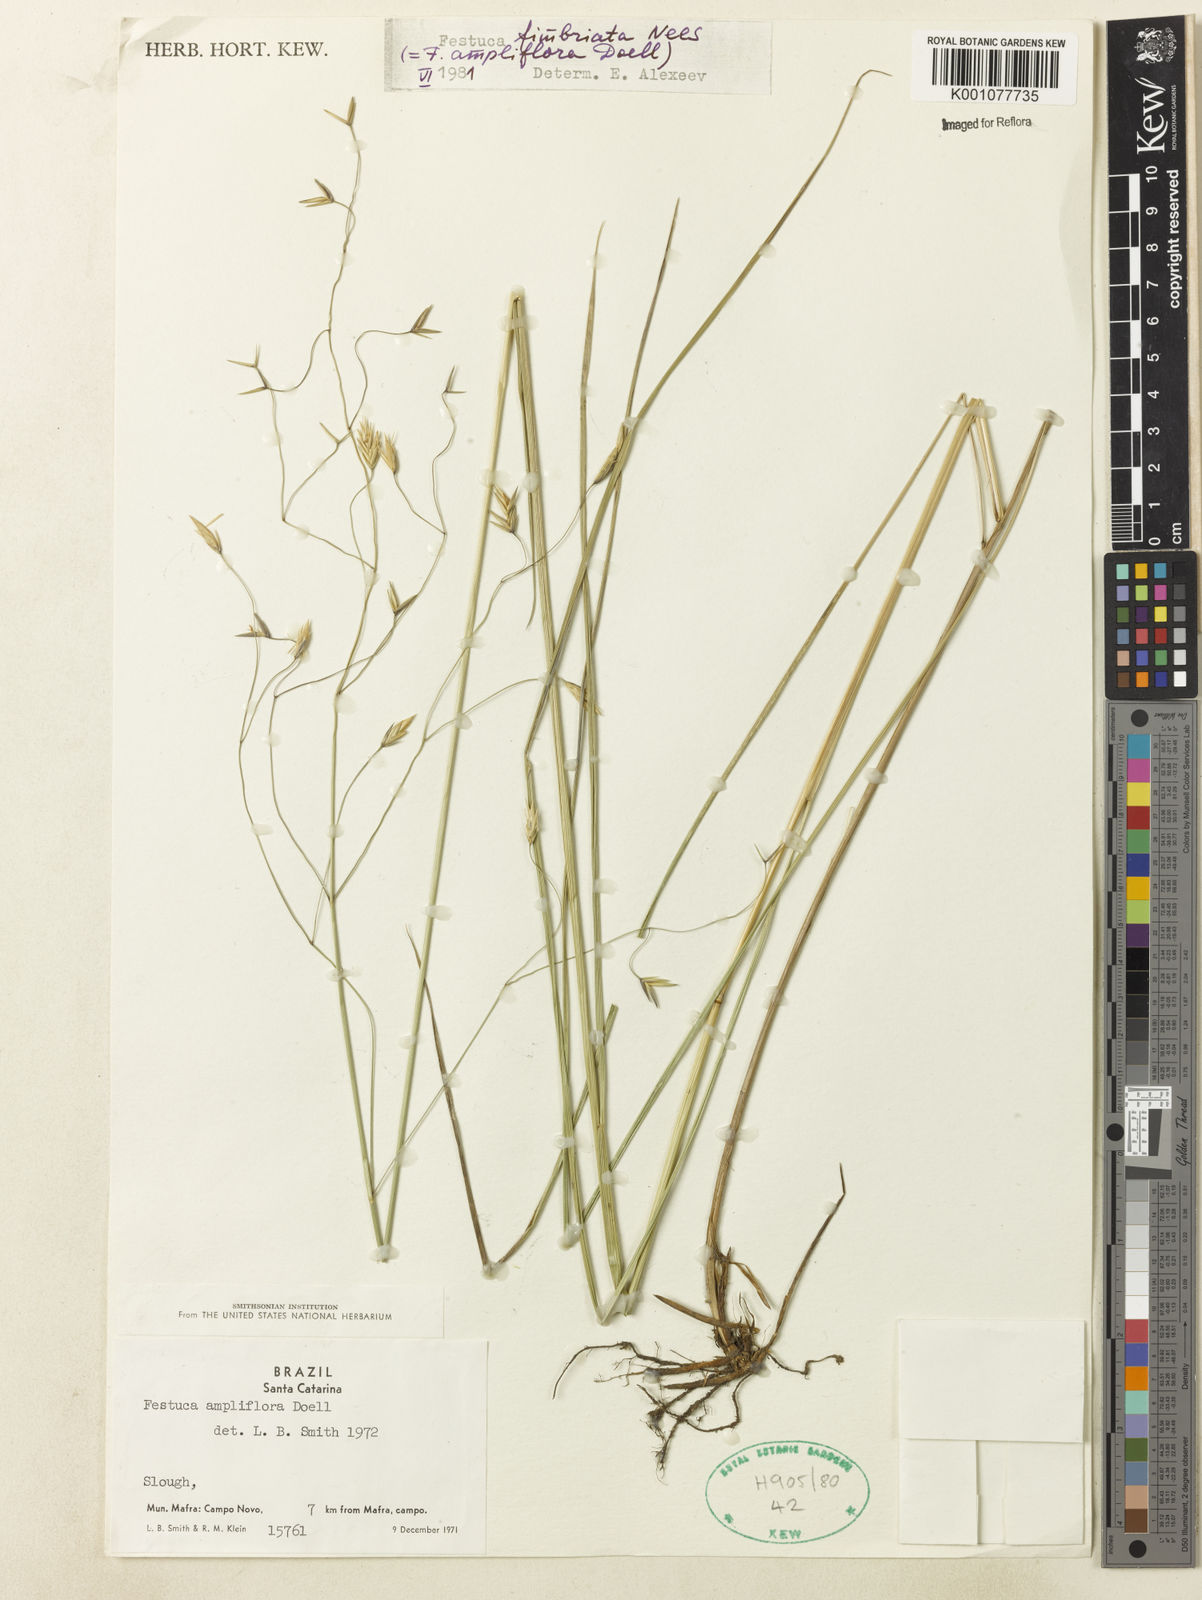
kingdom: Plantae
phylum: Tracheophyta
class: Liliopsida
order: Poales
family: Poaceae
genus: Festuca
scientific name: Festuca fimbriata
